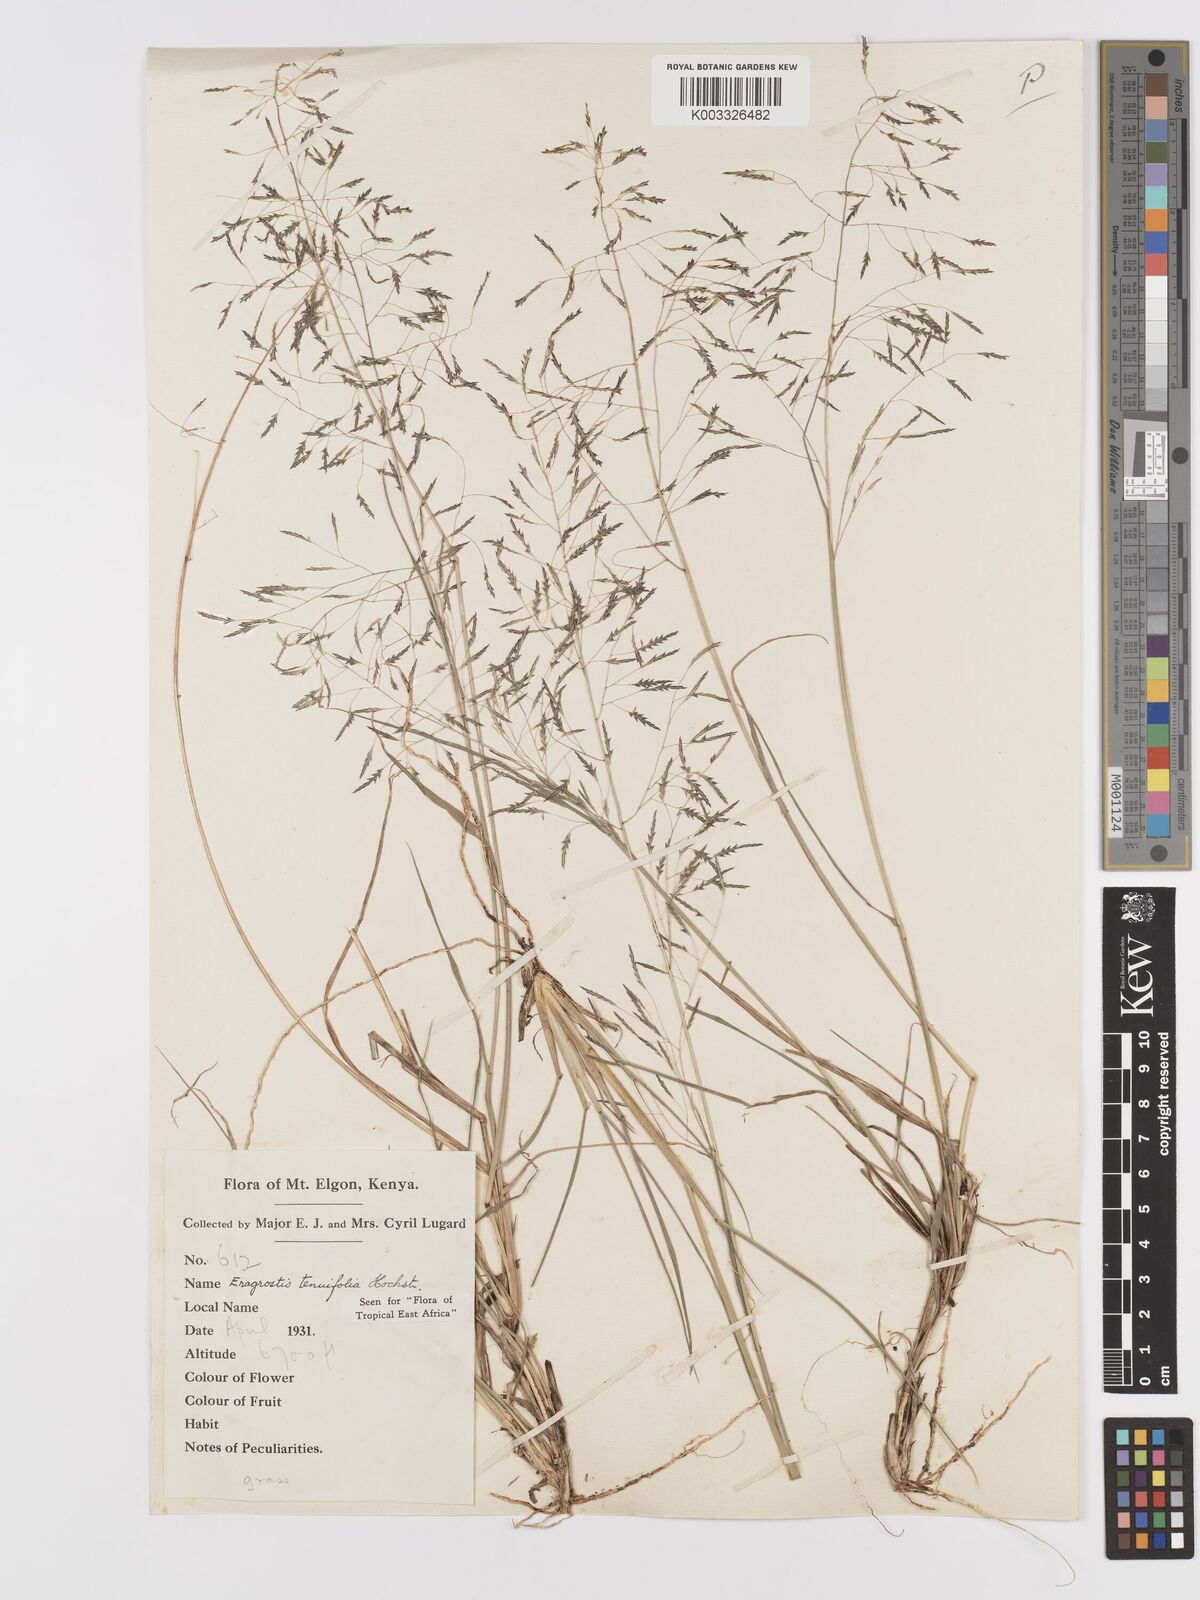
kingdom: Plantae
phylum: Tracheophyta
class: Liliopsida
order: Poales
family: Poaceae
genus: Eragrostis
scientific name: Eragrostis tenuifolia
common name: Elastic grass
